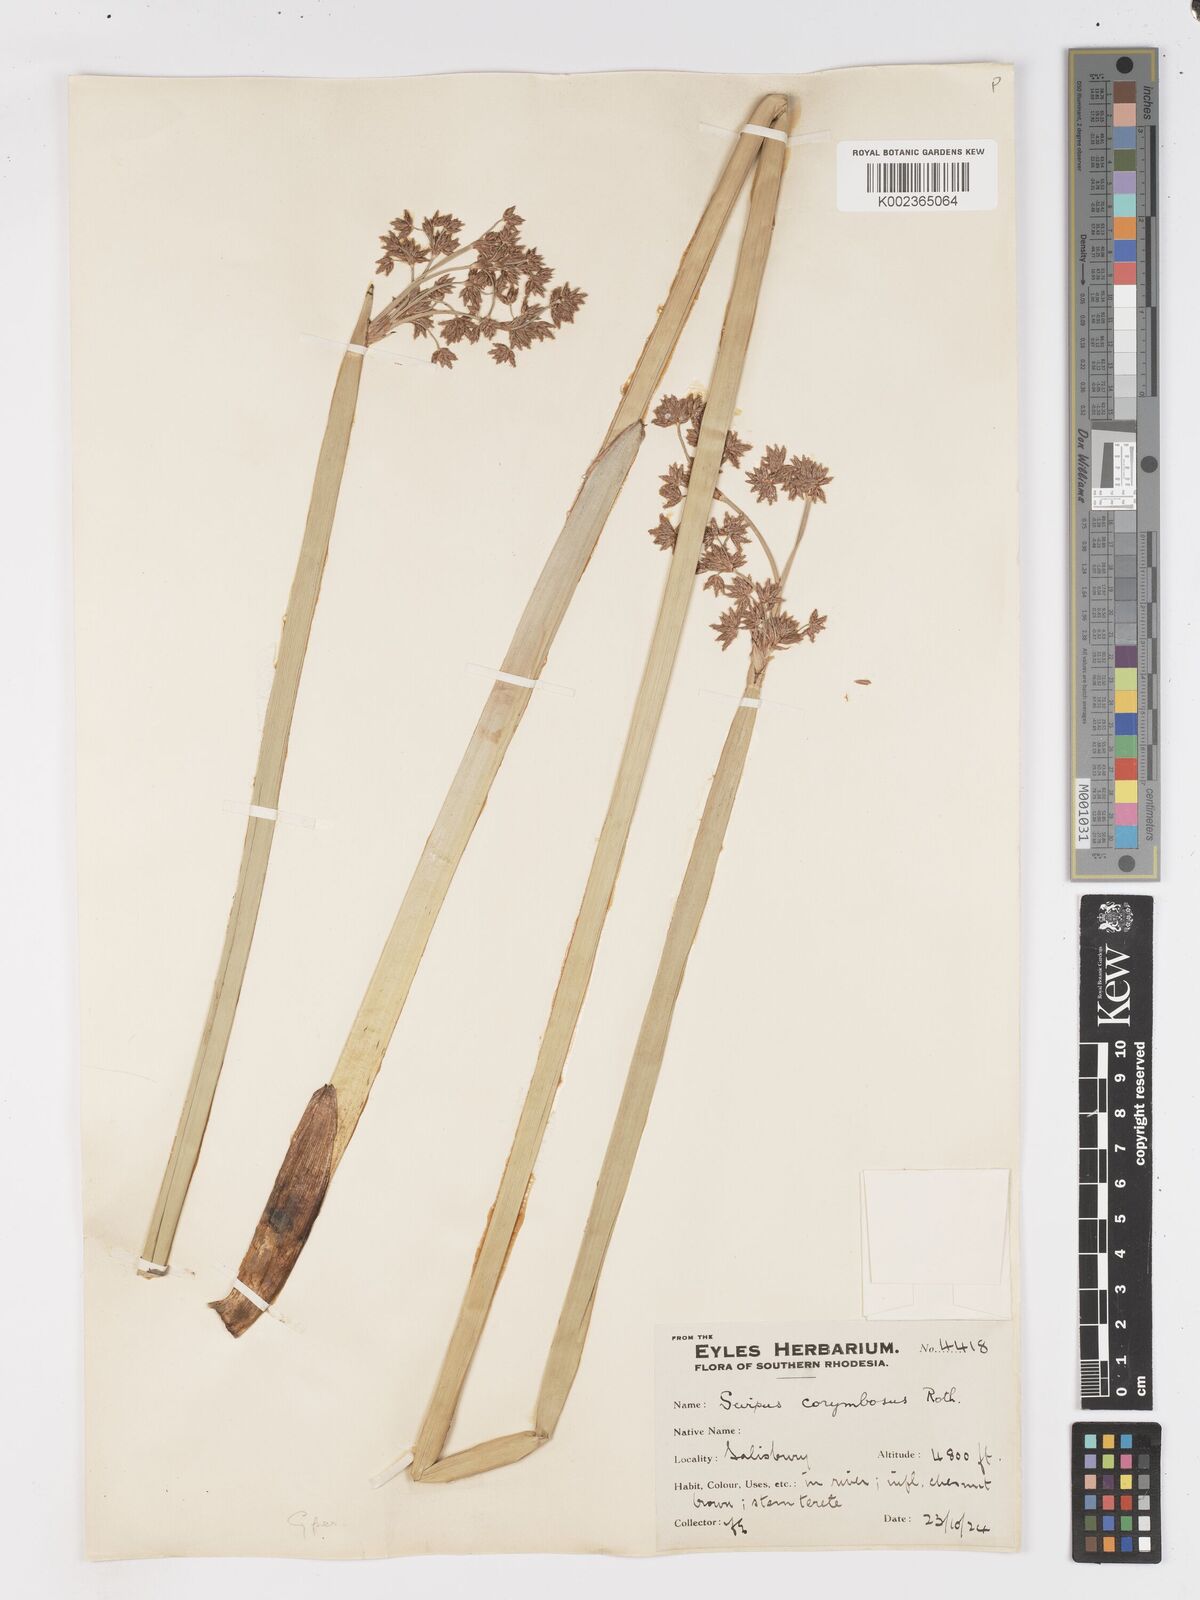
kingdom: Plantae
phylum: Tracheophyta
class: Liliopsida
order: Poales
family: Cyperaceae
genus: Schoenoplectiella
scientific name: Schoenoplectiella brachyceras
